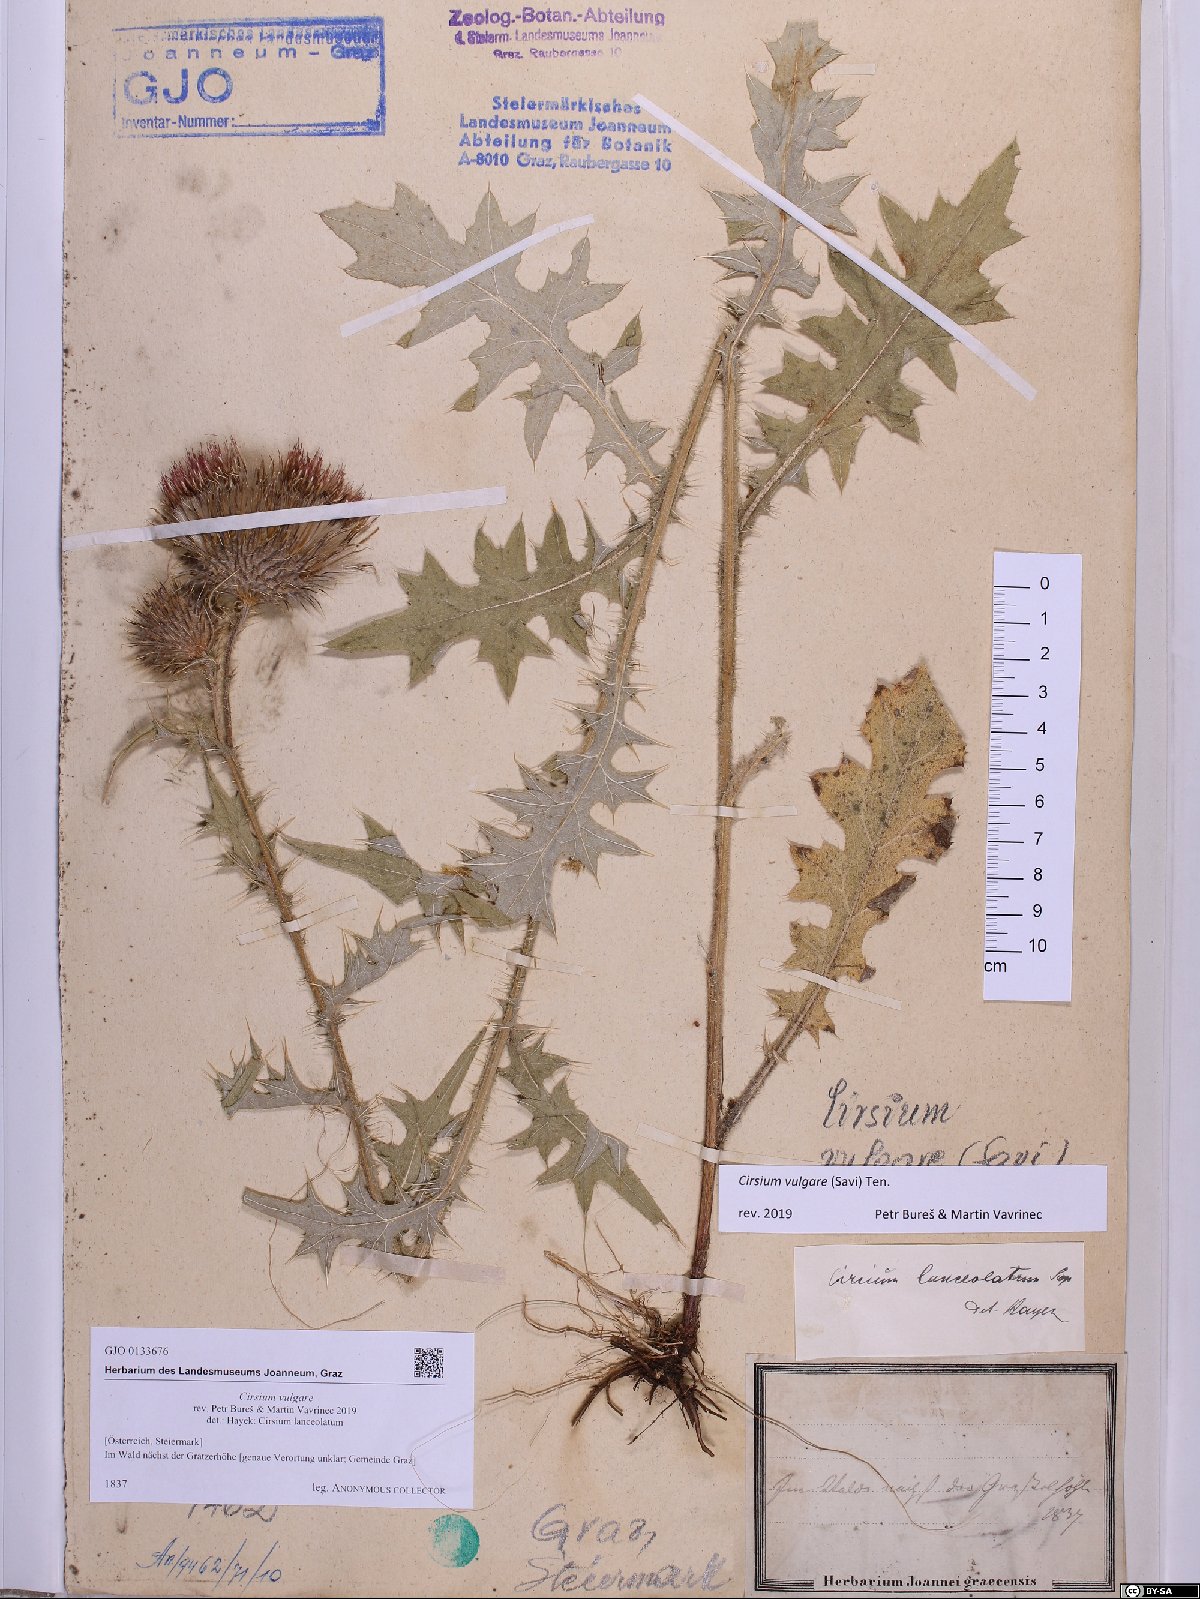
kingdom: Plantae
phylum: Tracheophyta
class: Magnoliopsida
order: Asterales
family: Asteraceae
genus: Cirsium
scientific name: Cirsium vulgare
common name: Bull thistle
